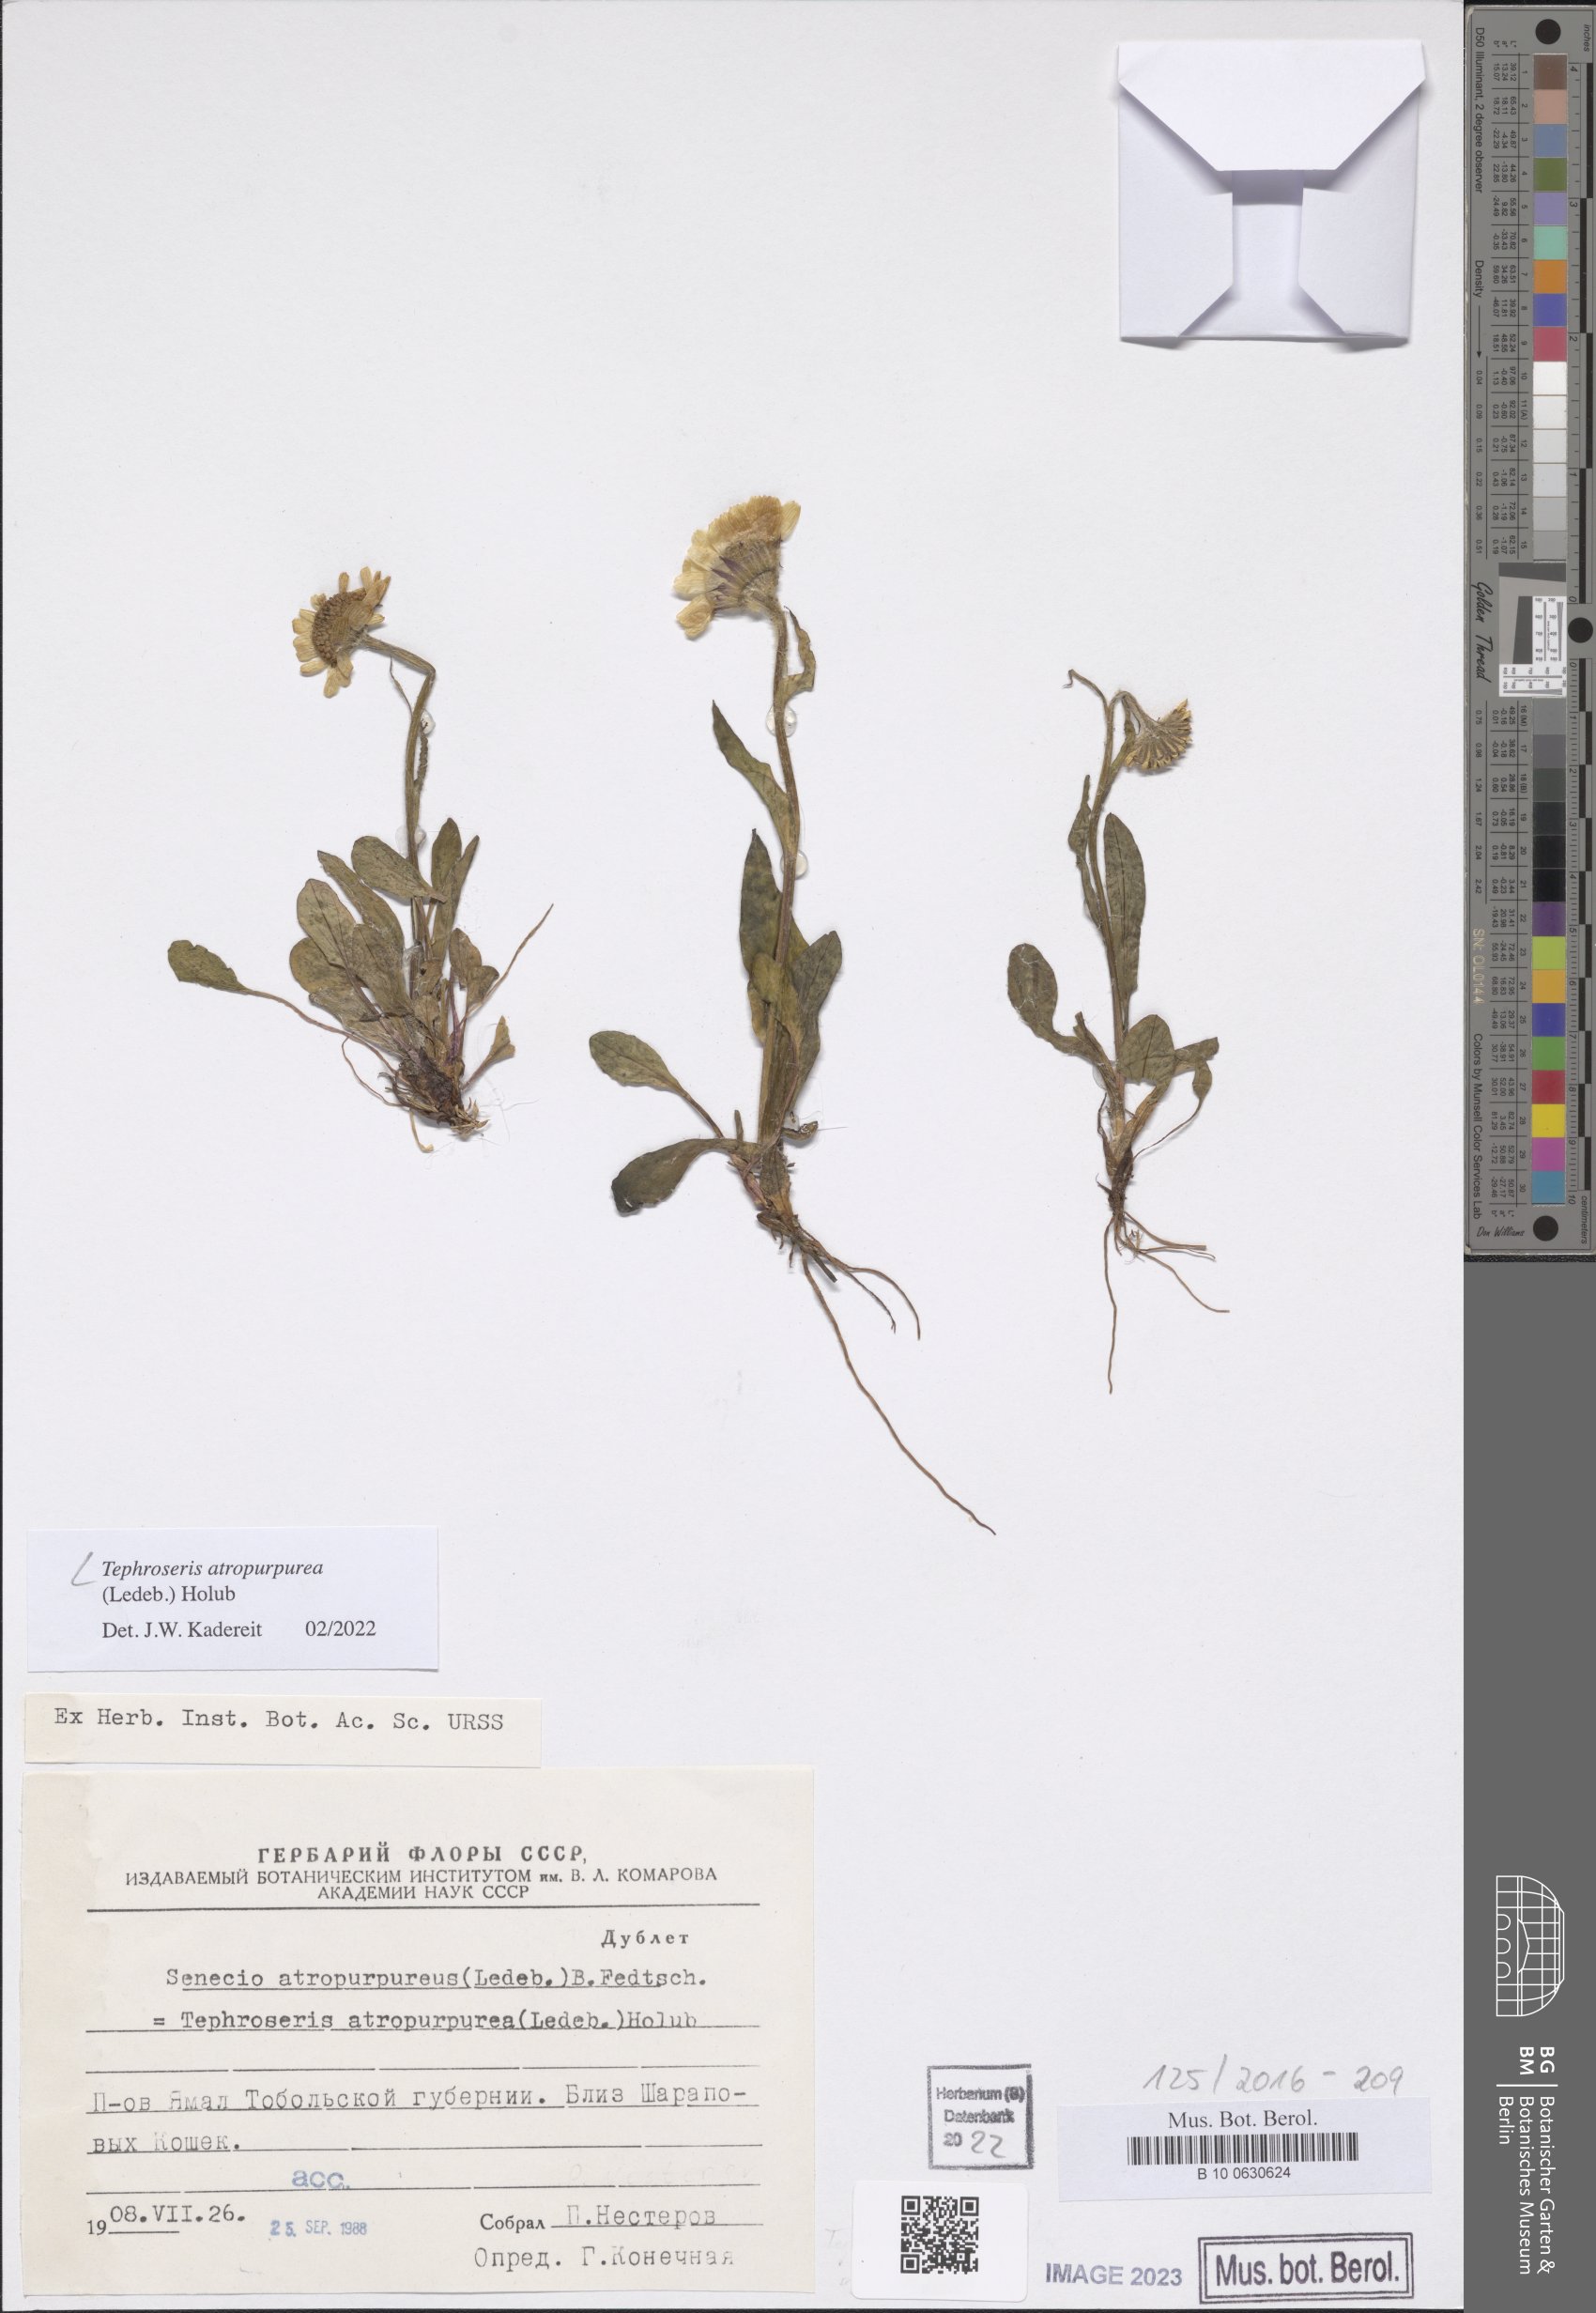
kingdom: Plantae
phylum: Tracheophyta
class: Magnoliopsida
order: Asterales
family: Asteraceae
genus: Tephroseris
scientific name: Tephroseris integrifolia
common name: Field fleawort
